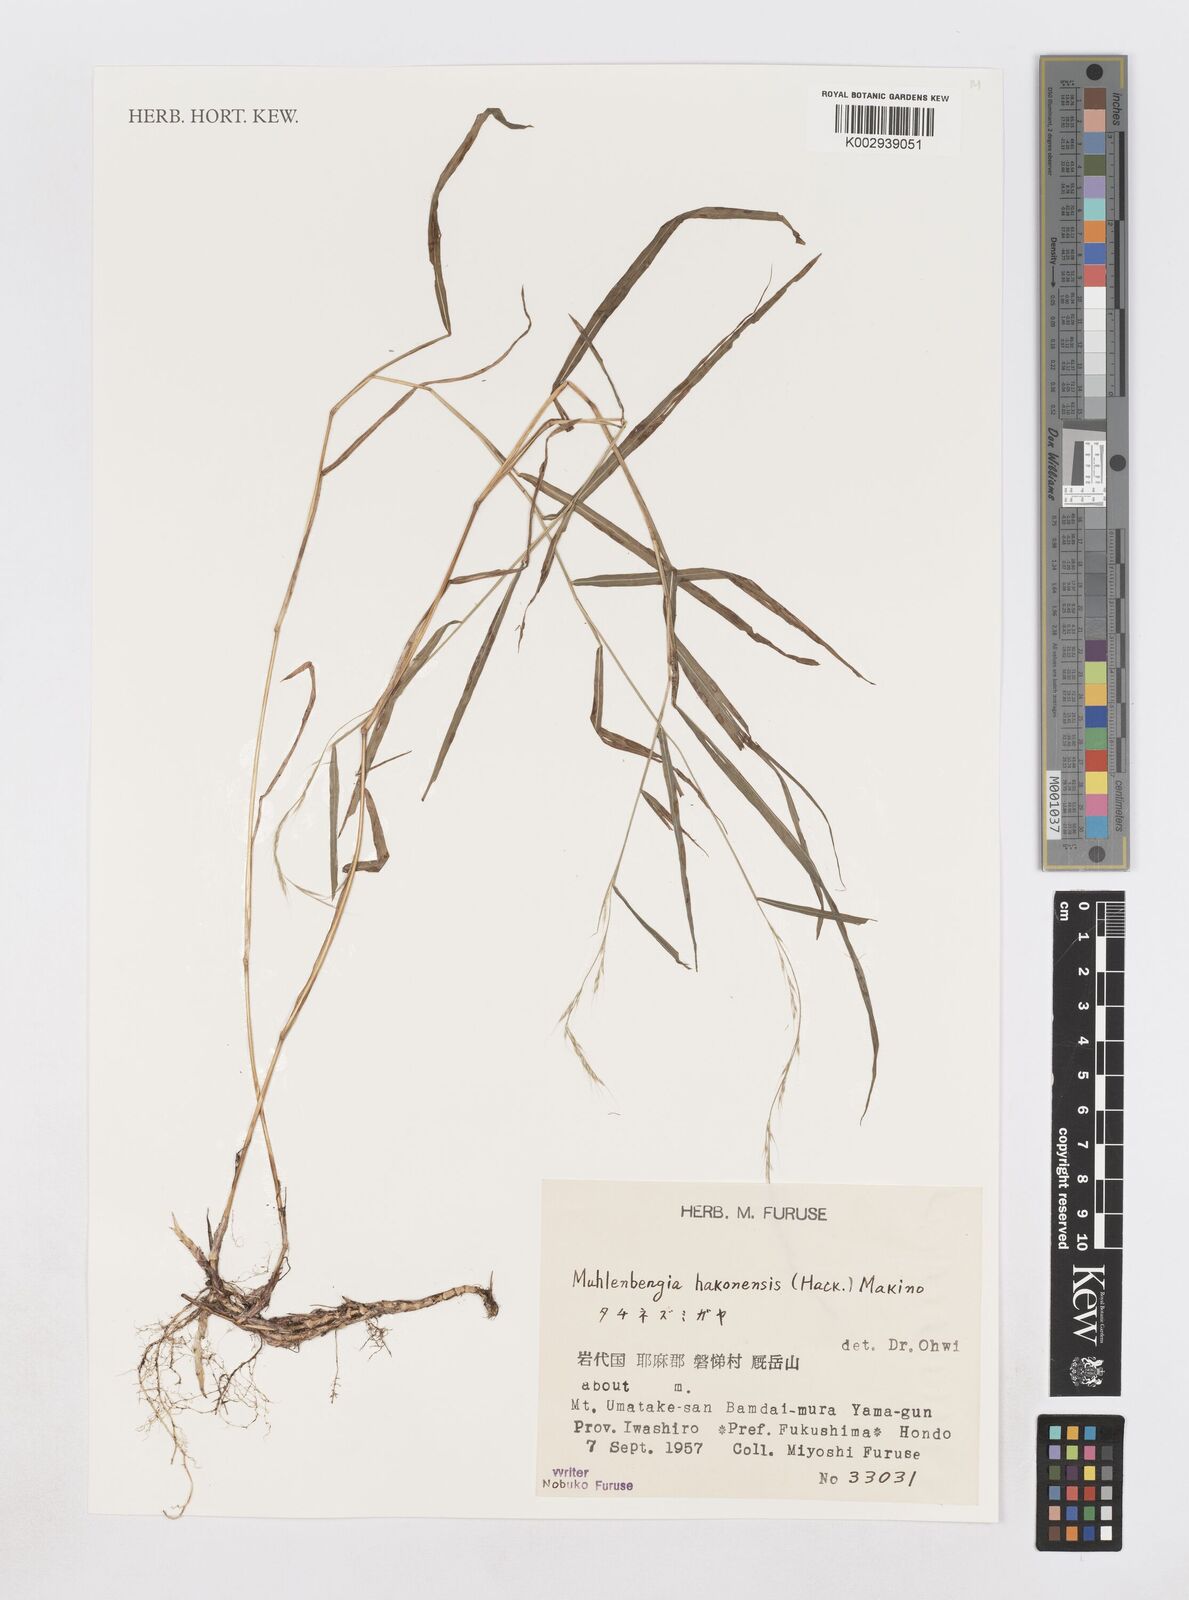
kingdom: Plantae
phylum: Tracheophyta
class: Liliopsida
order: Poales
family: Poaceae
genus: Muhlenbergia
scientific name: Muhlenbergia hakonensis
